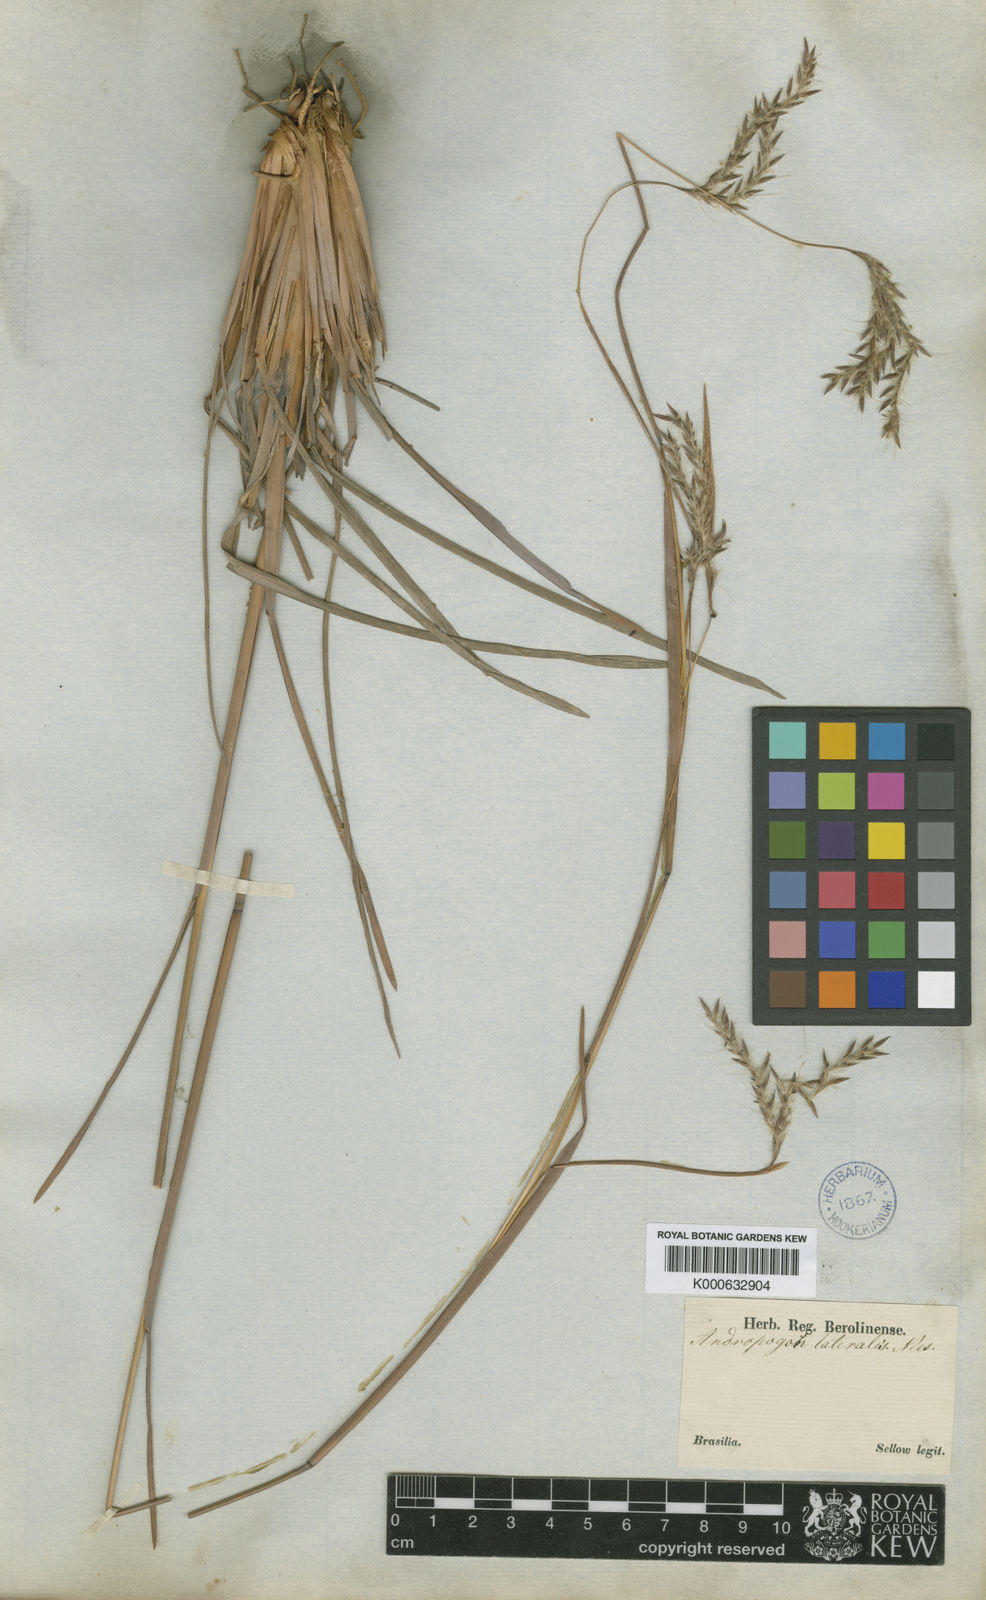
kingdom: Plantae
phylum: Tracheophyta
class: Liliopsida
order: Poales
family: Poaceae
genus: Andropogon
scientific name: Andropogon lateralis
